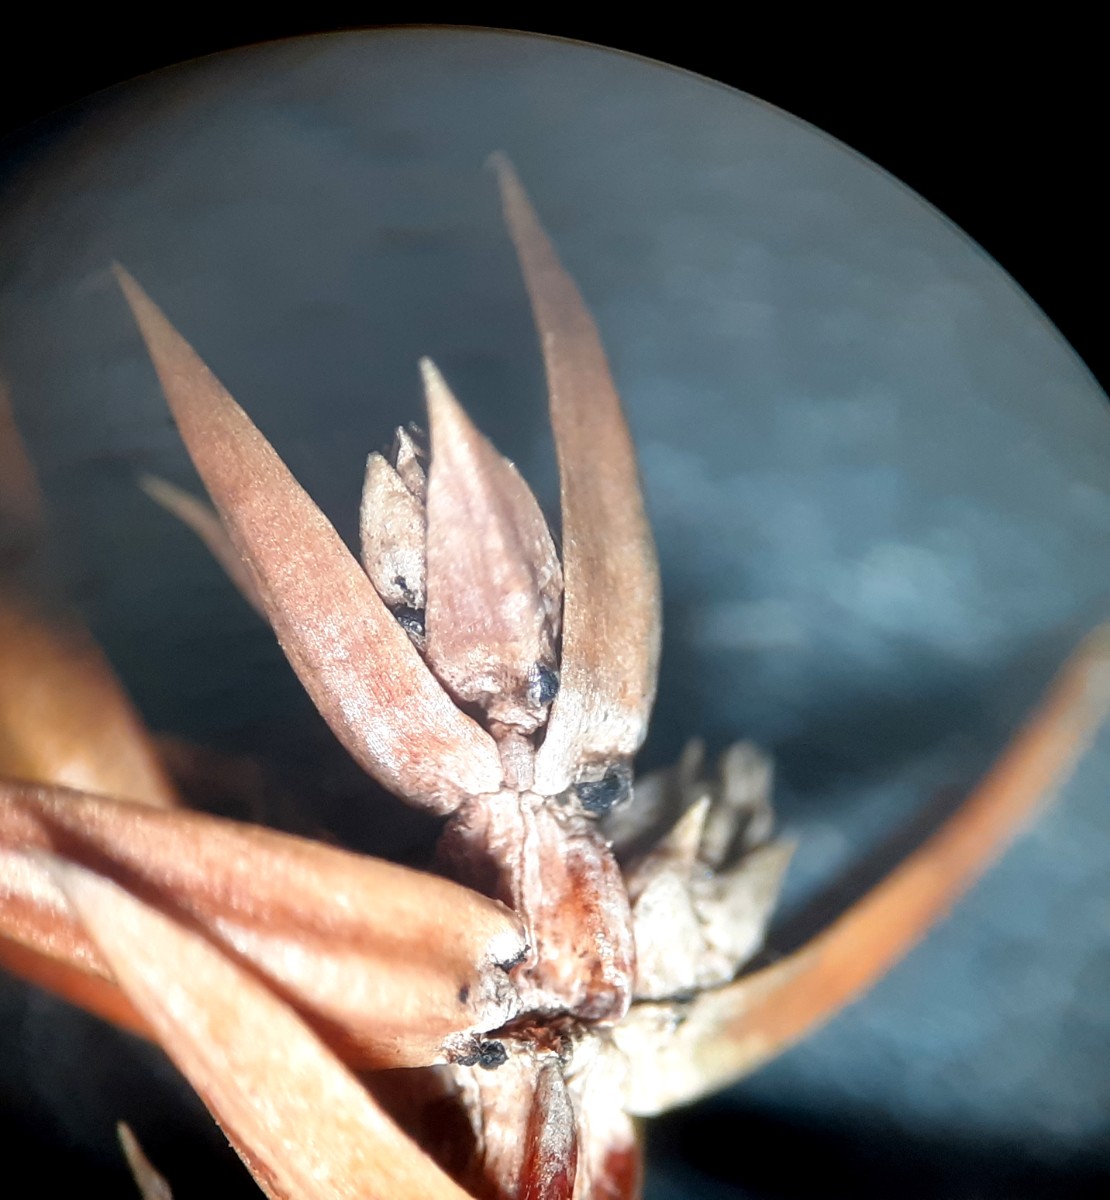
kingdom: Fungi
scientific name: Fungi
